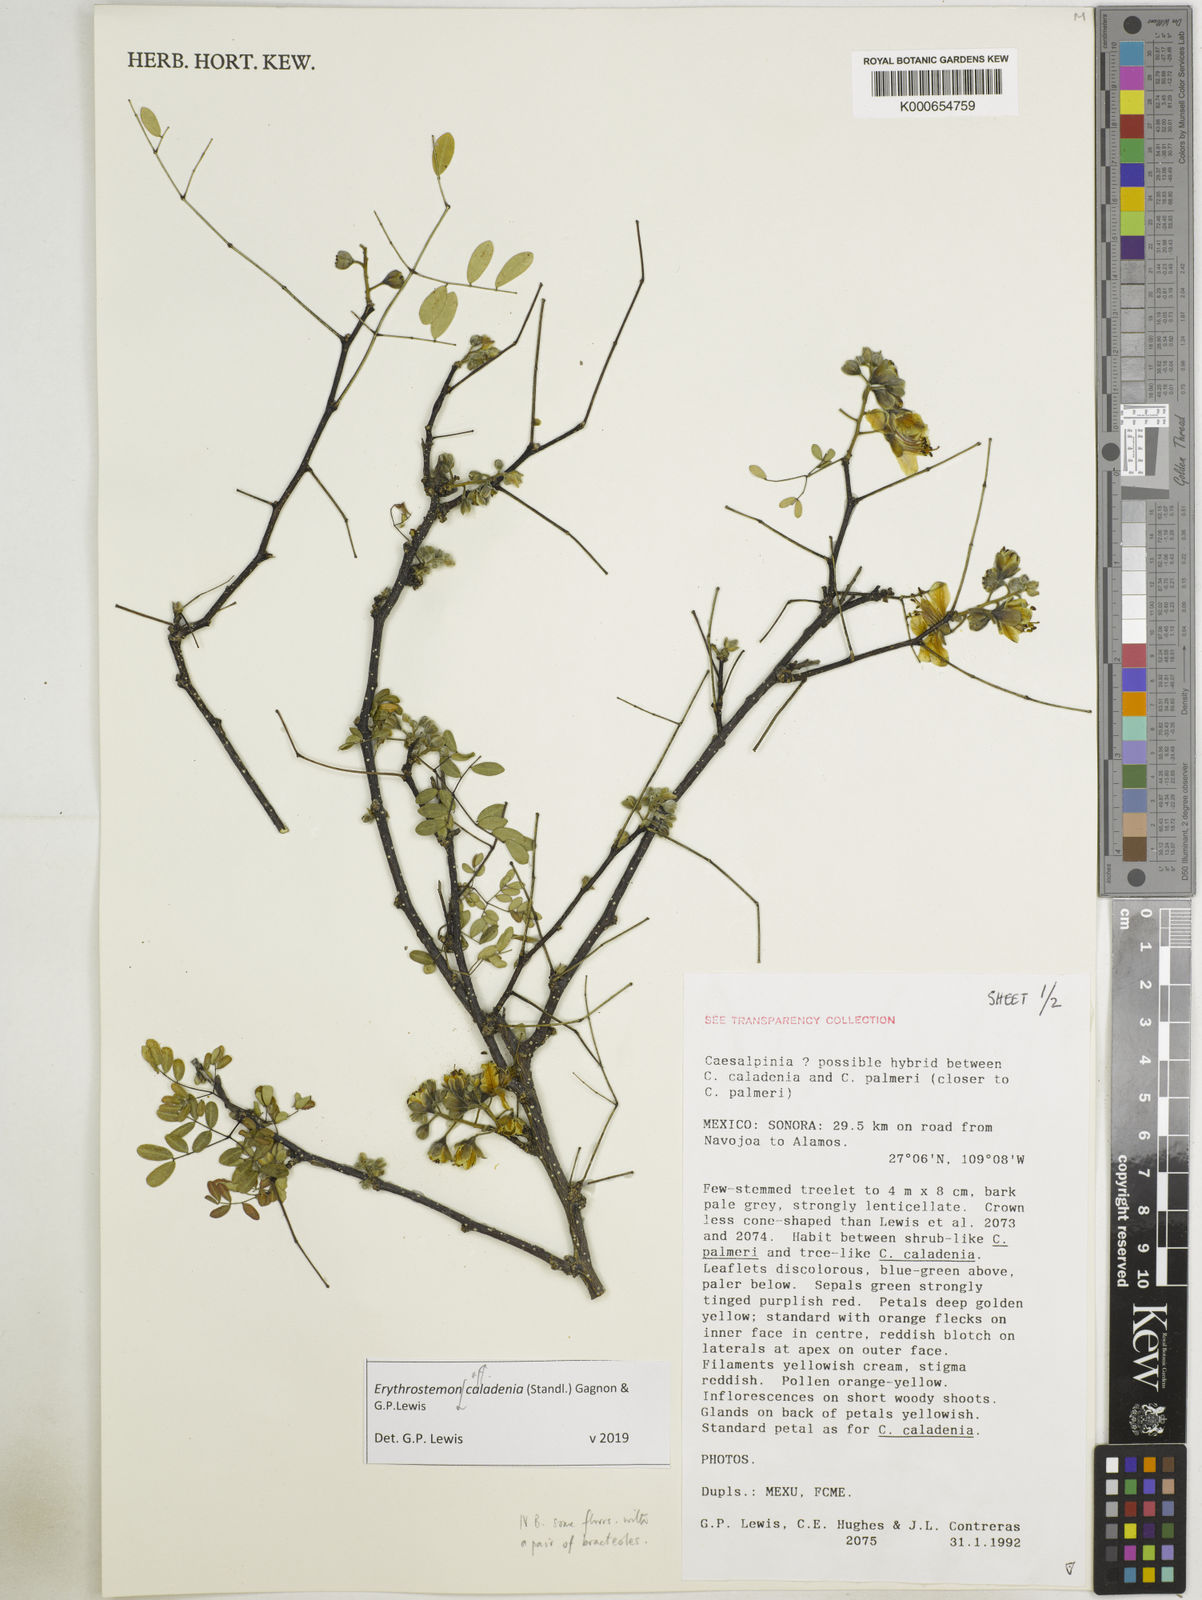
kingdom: Plantae
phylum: Tracheophyta
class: Magnoliopsida
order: Fabales
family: Fabaceae
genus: Erythrostemon
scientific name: Erythrostemon palmeri
